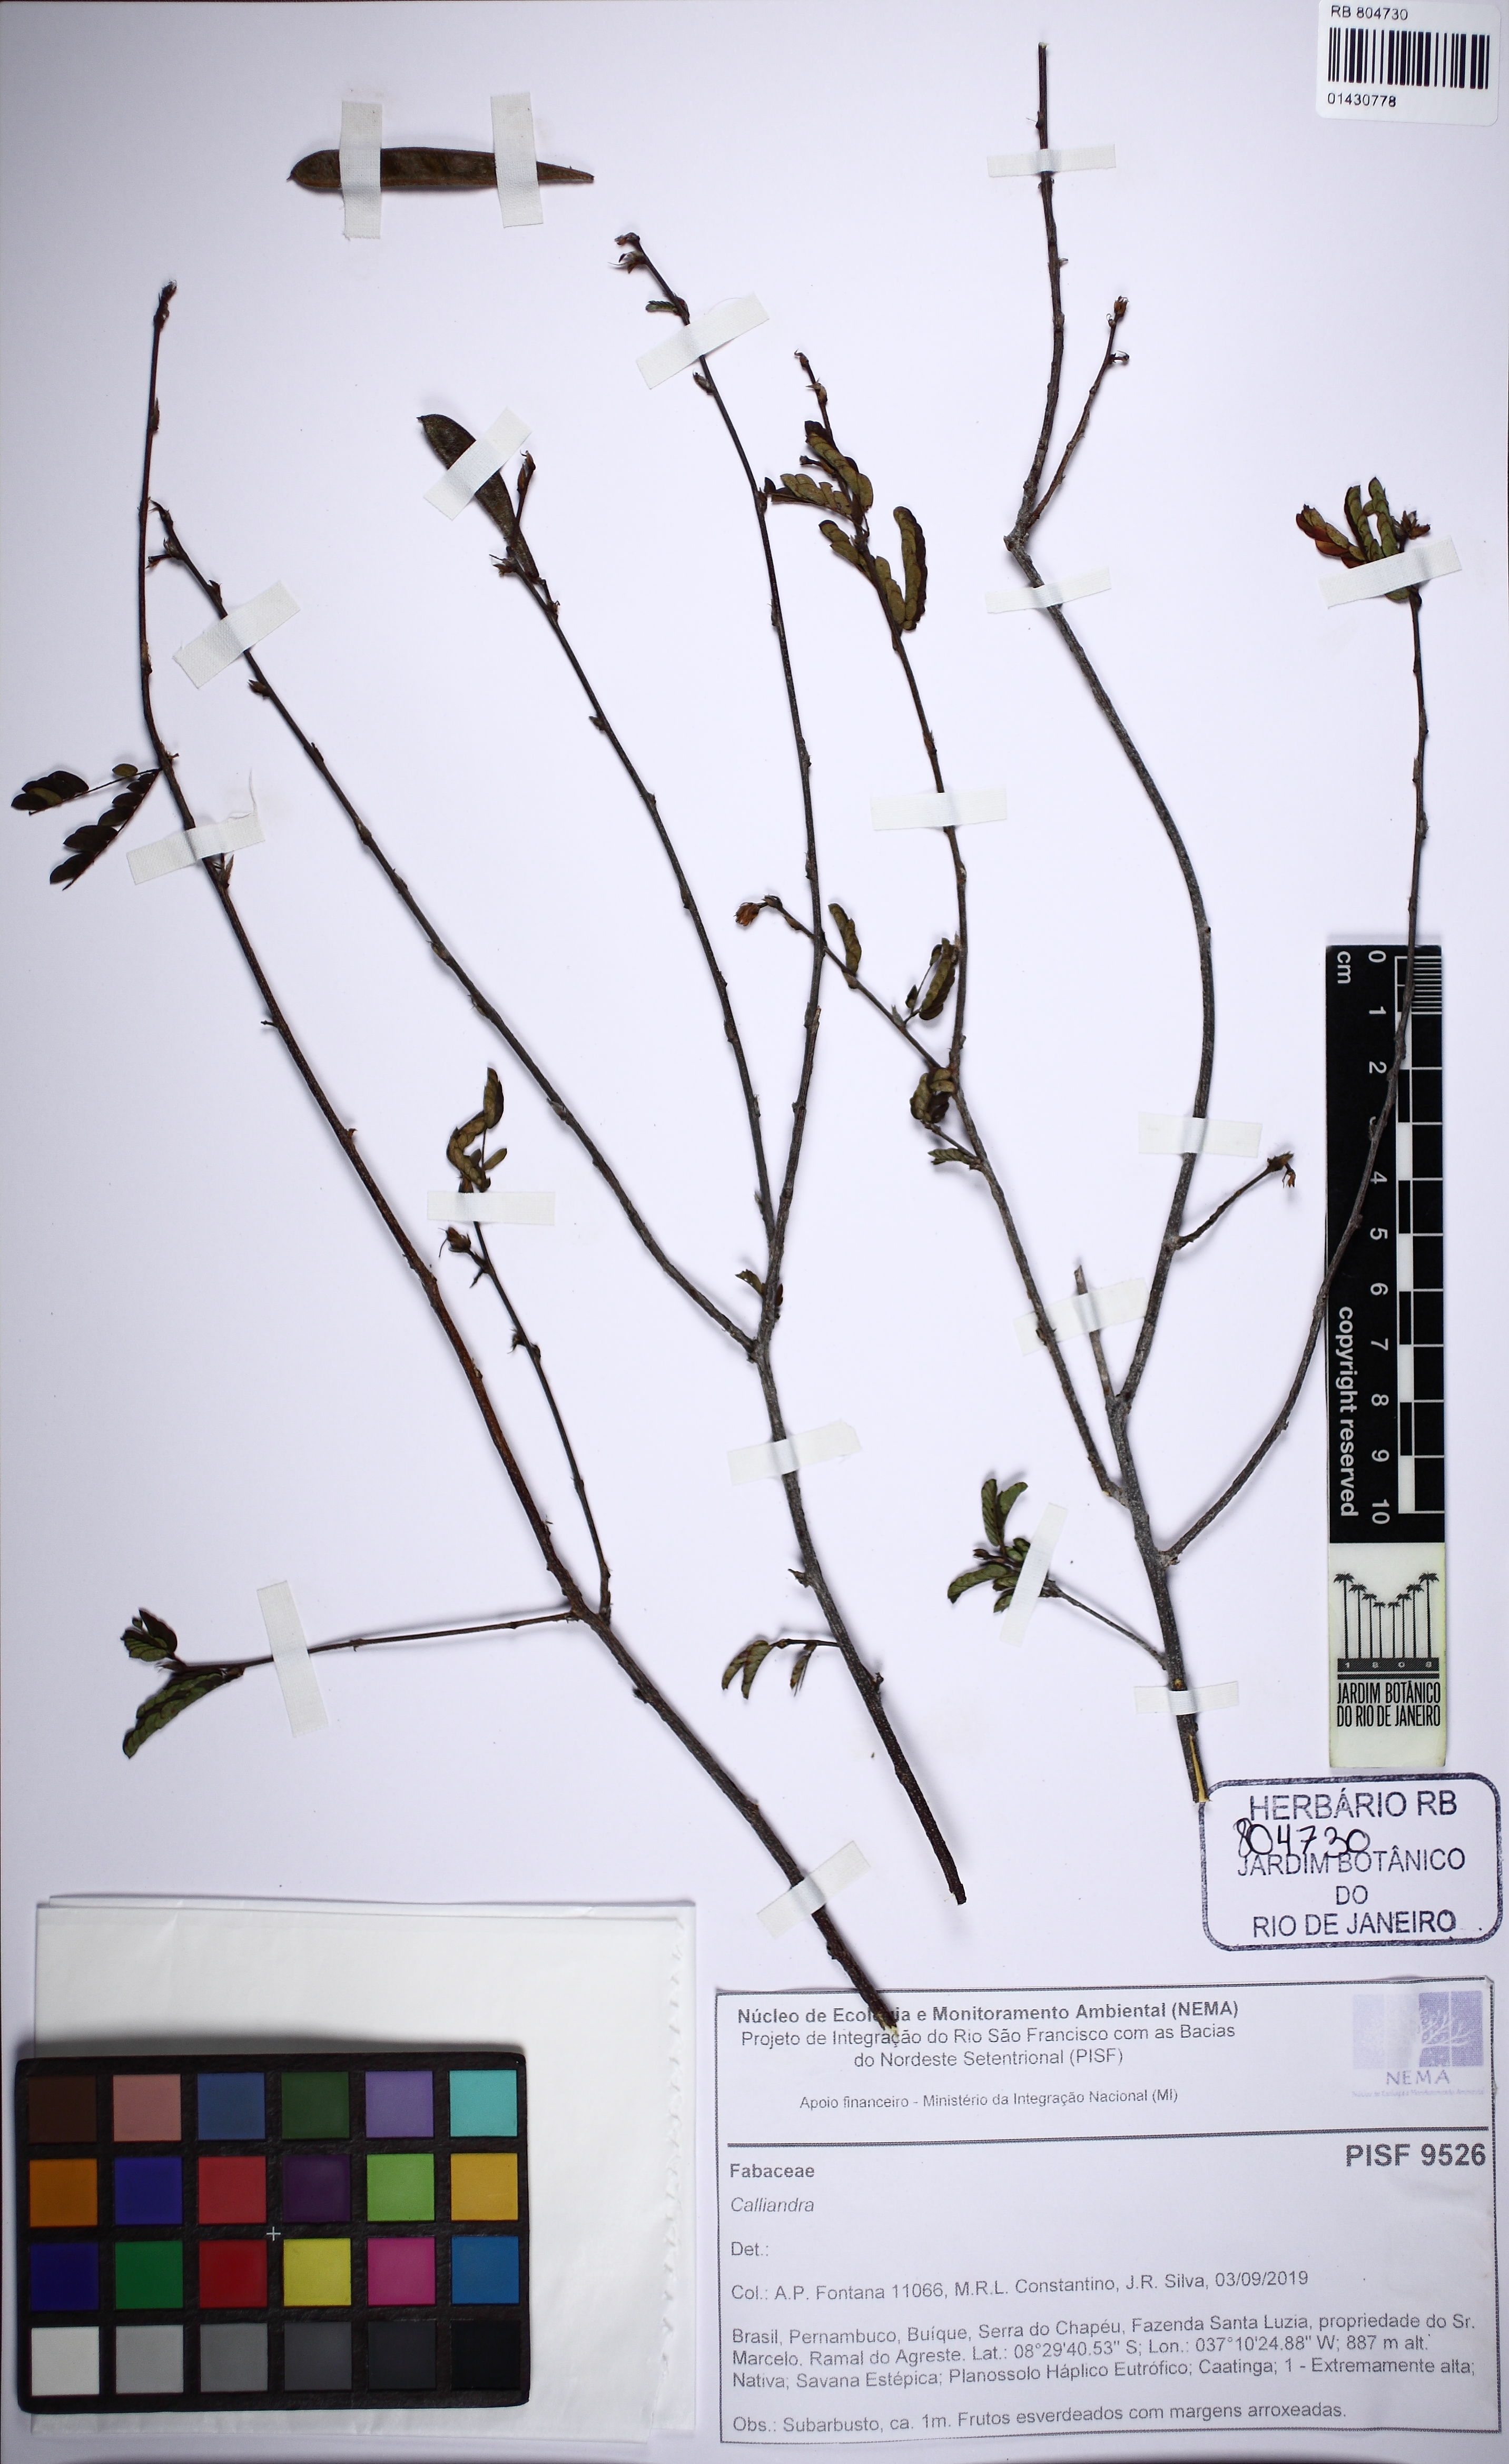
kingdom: Plantae
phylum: Tracheophyta
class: Magnoliopsida
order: Fabales
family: Fabaceae
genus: Calliandra
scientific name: Calliandra
